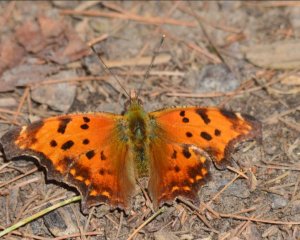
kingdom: Animalia
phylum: Arthropoda
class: Insecta
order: Lepidoptera
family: Nymphalidae
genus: Polygonia
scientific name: Polygonia comma
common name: Eastern Comma
